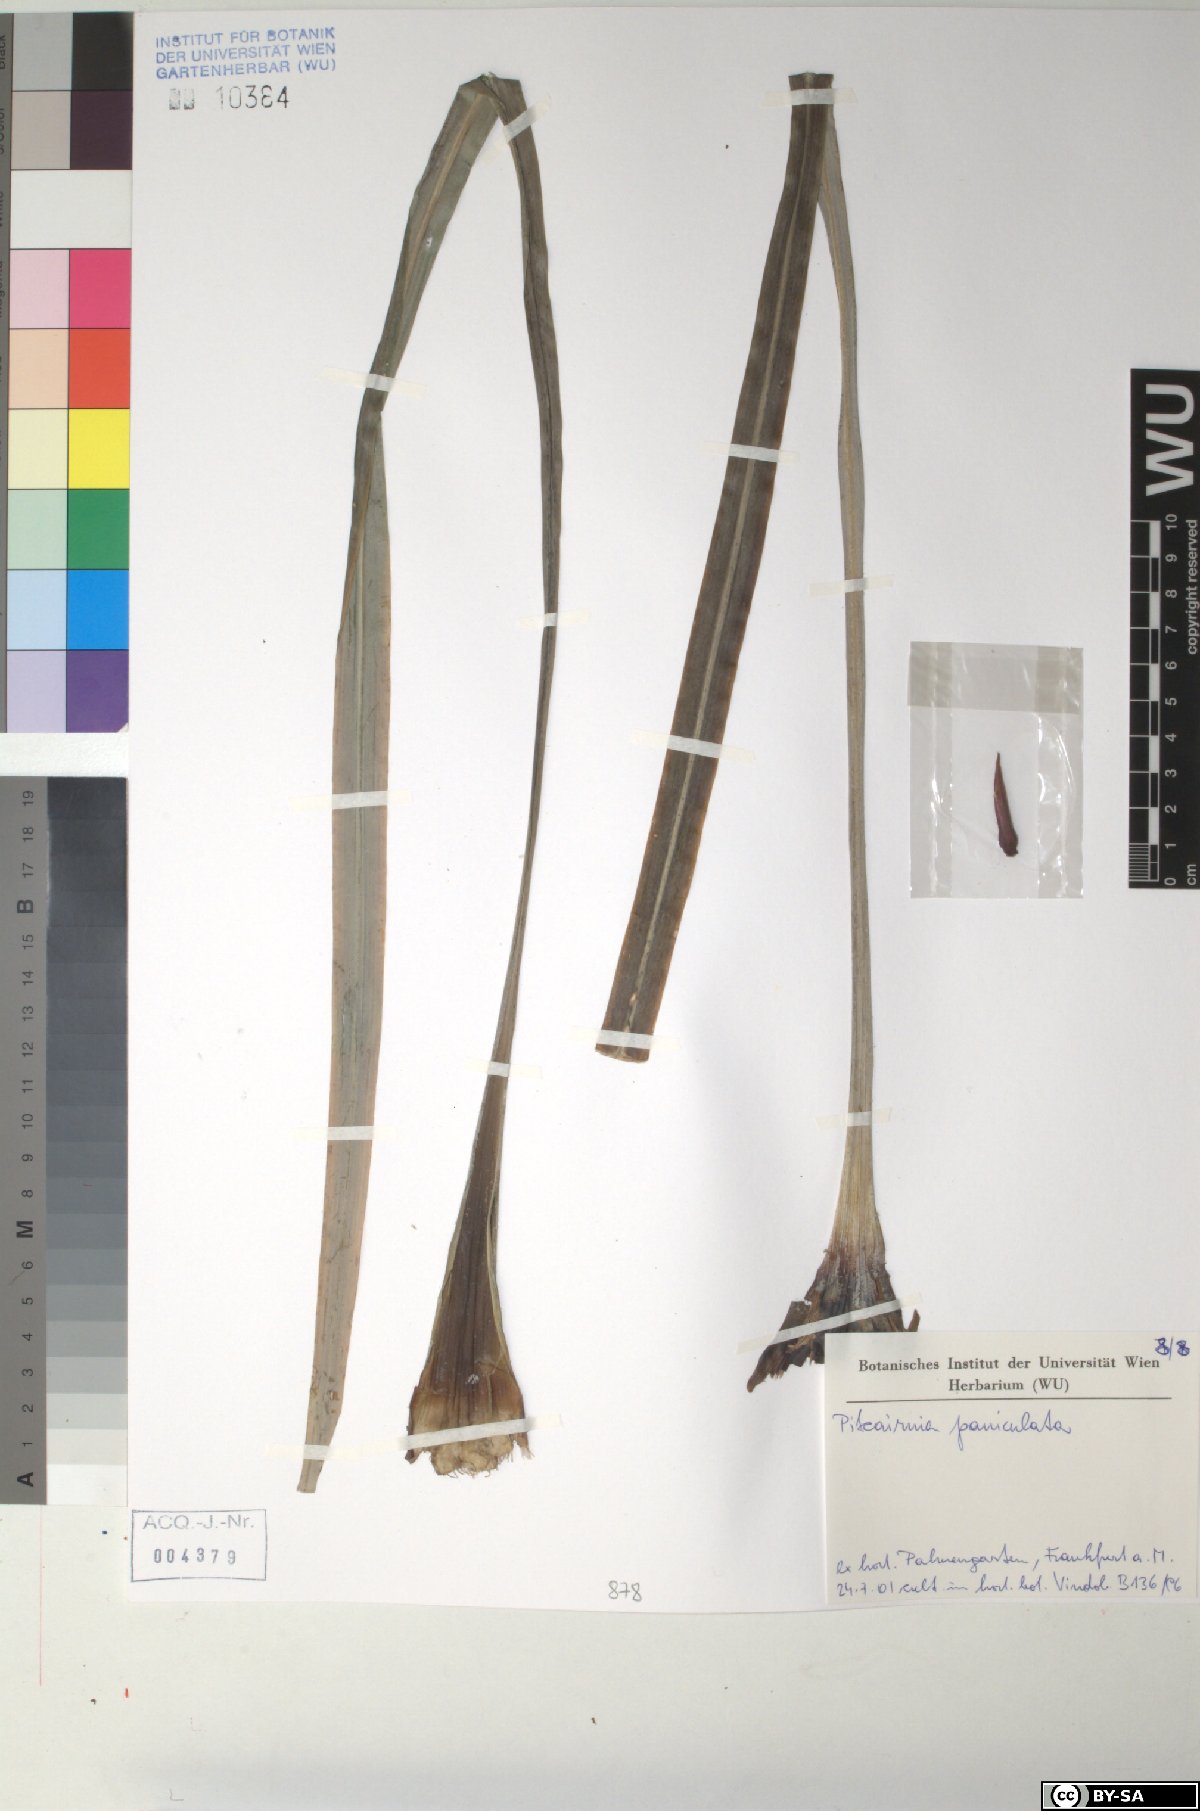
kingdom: Plantae
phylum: Tracheophyta
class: Liliopsida
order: Poales
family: Bromeliaceae
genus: Pitcairnia
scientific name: Pitcairnia paniculata
